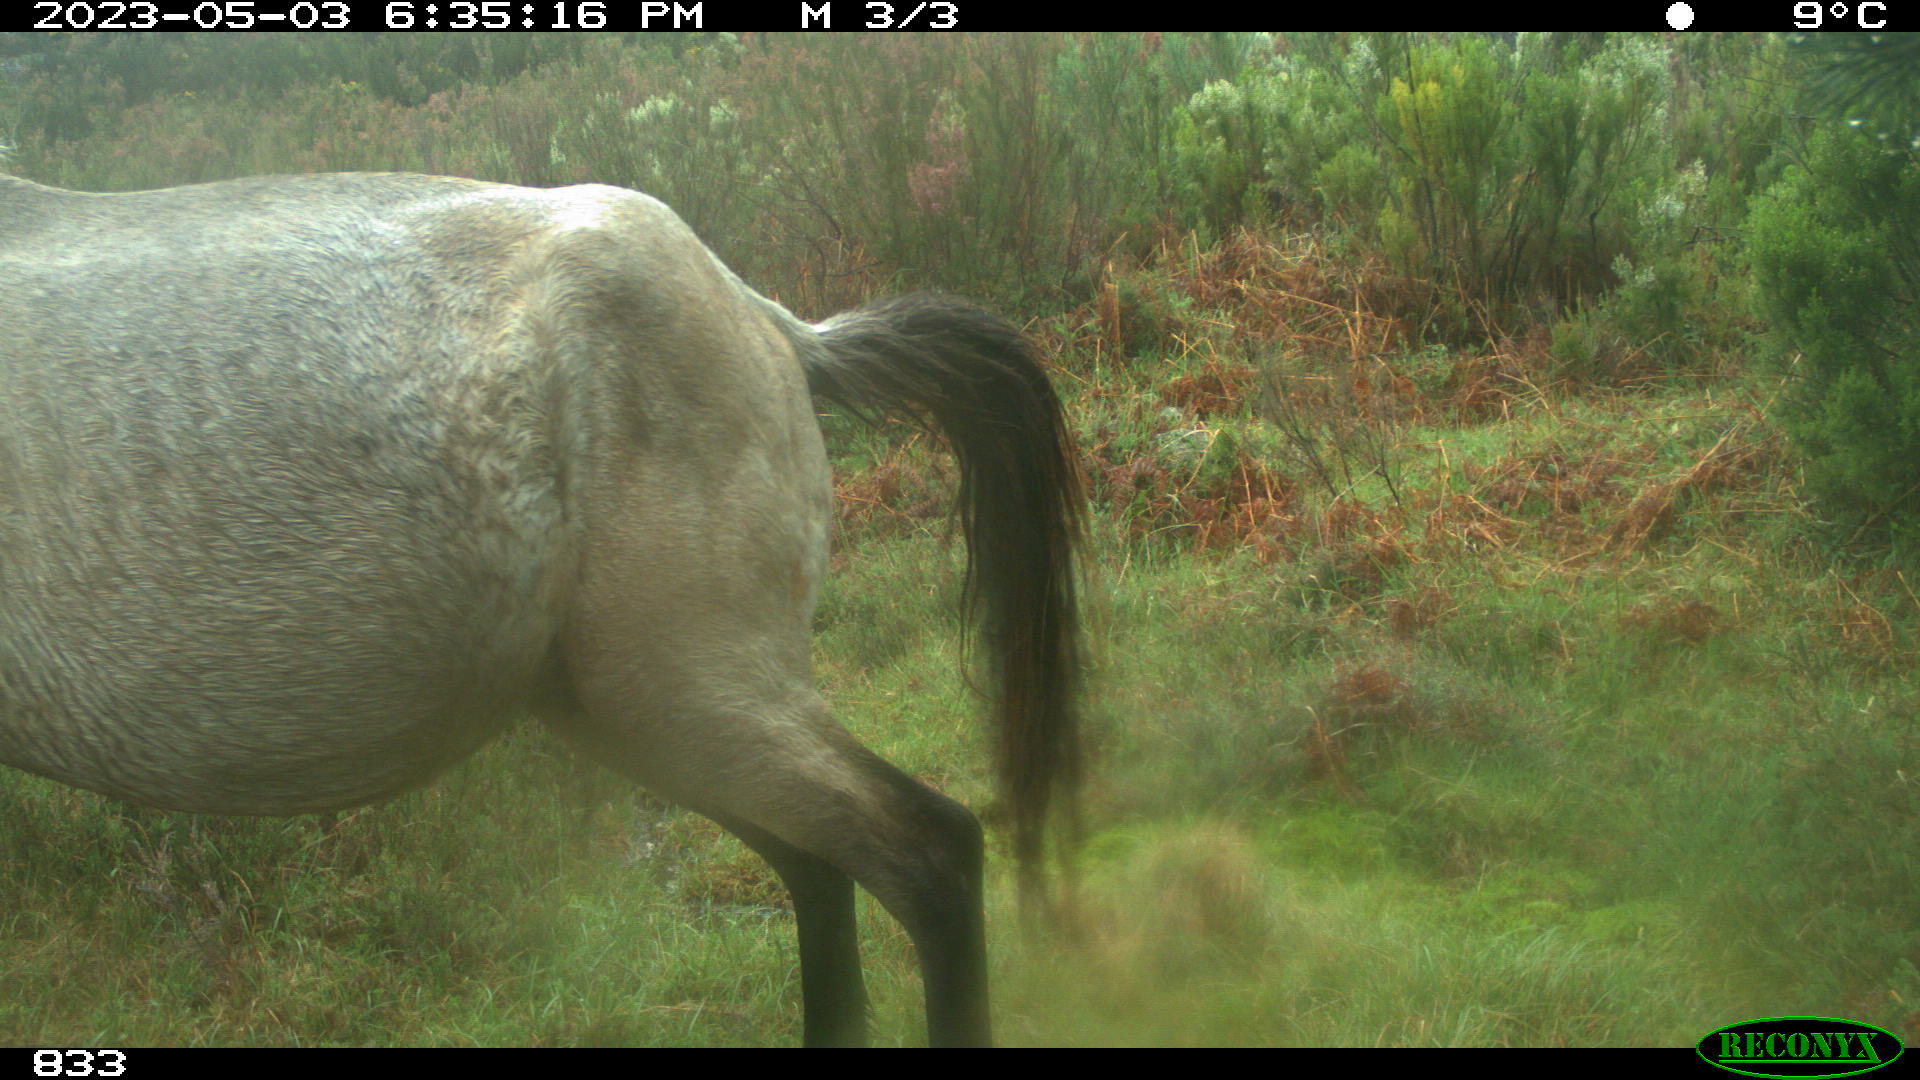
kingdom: Animalia
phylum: Chordata
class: Mammalia
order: Perissodactyla
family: Equidae
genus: Equus
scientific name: Equus caballus
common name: Horse
